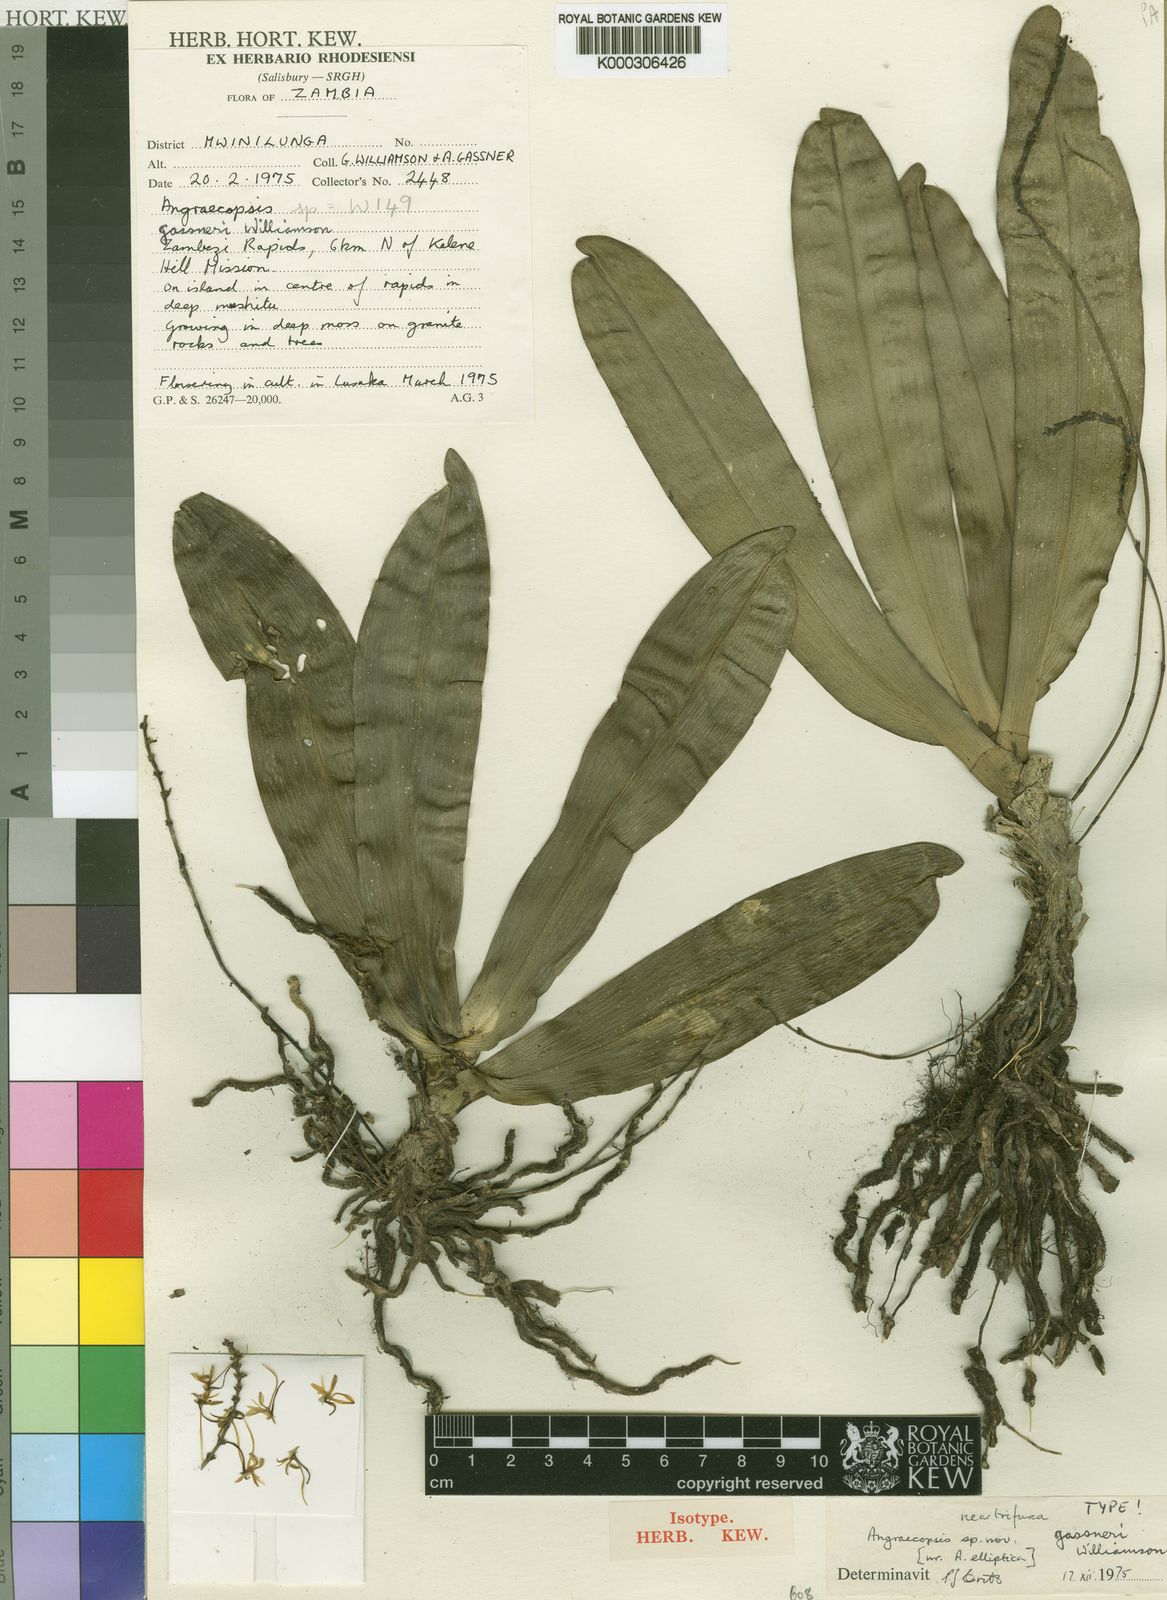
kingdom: Plantae
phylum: Tracheophyta
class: Liliopsida
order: Asparagales
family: Orchidaceae
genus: Angraecopsis
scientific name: Angraecopsis gassneri
